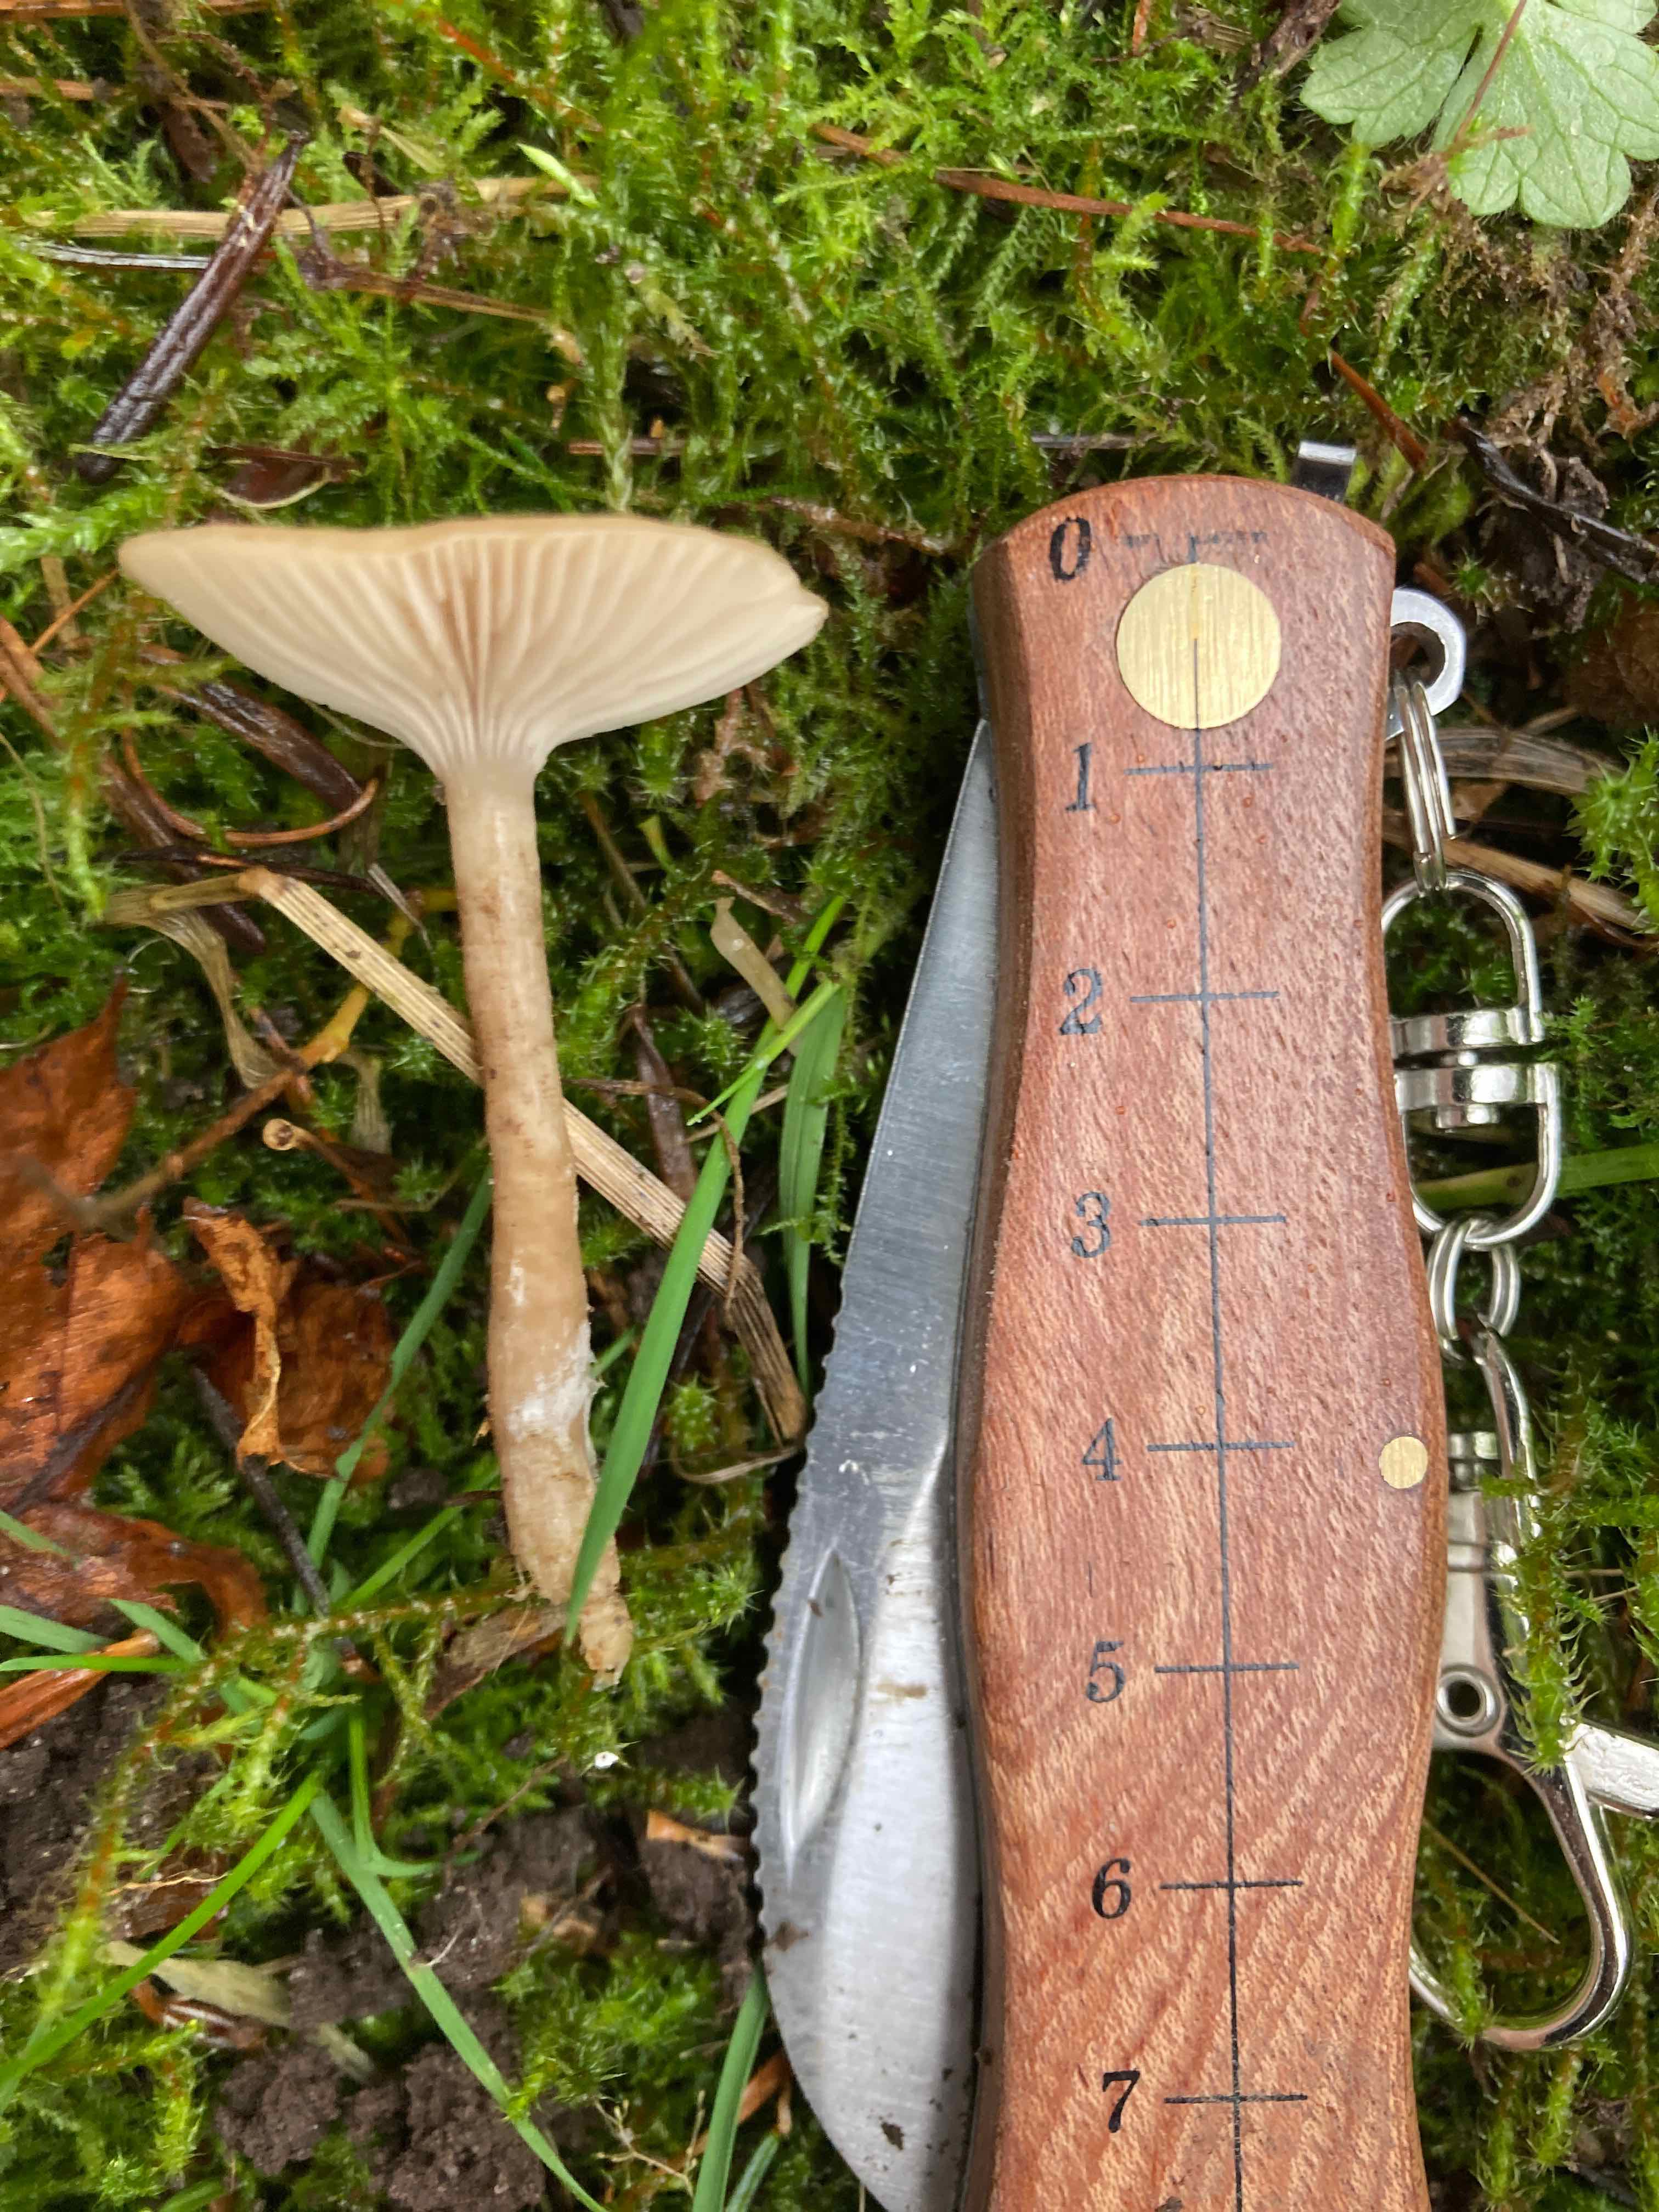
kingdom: Fungi
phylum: Basidiomycota
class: Agaricomycetes
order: Agaricales
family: Tricholomataceae
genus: Clitocybe
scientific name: Clitocybe fragrans
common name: vellugtende tragthat
